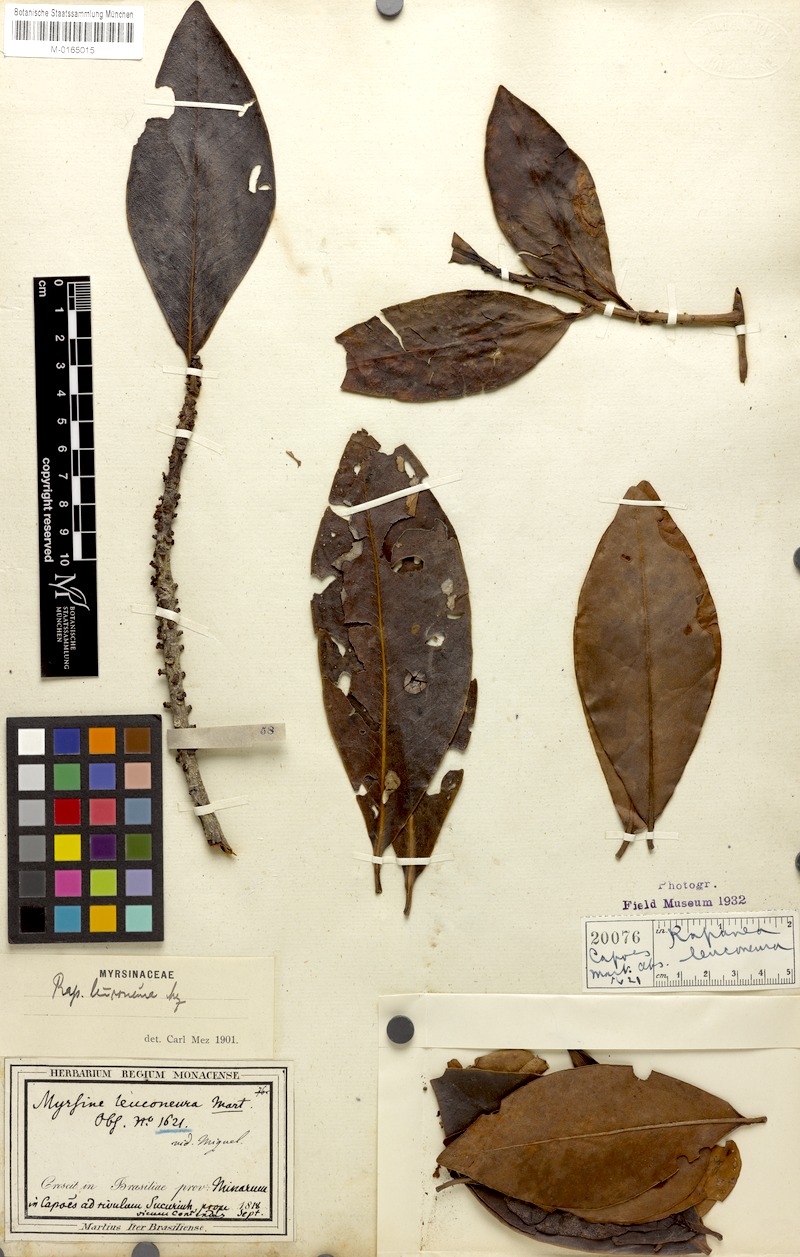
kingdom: Plantae
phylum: Tracheophyta
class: Magnoliopsida
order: Ericales
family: Primulaceae
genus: Myrsine
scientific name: Myrsine leuconeura
